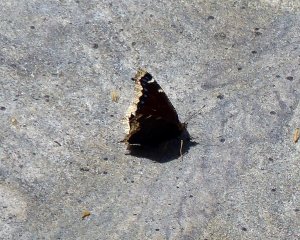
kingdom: Animalia
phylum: Arthropoda
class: Insecta
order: Lepidoptera
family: Nymphalidae
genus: Nymphalis
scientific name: Nymphalis antiopa
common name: Mourning Cloak
